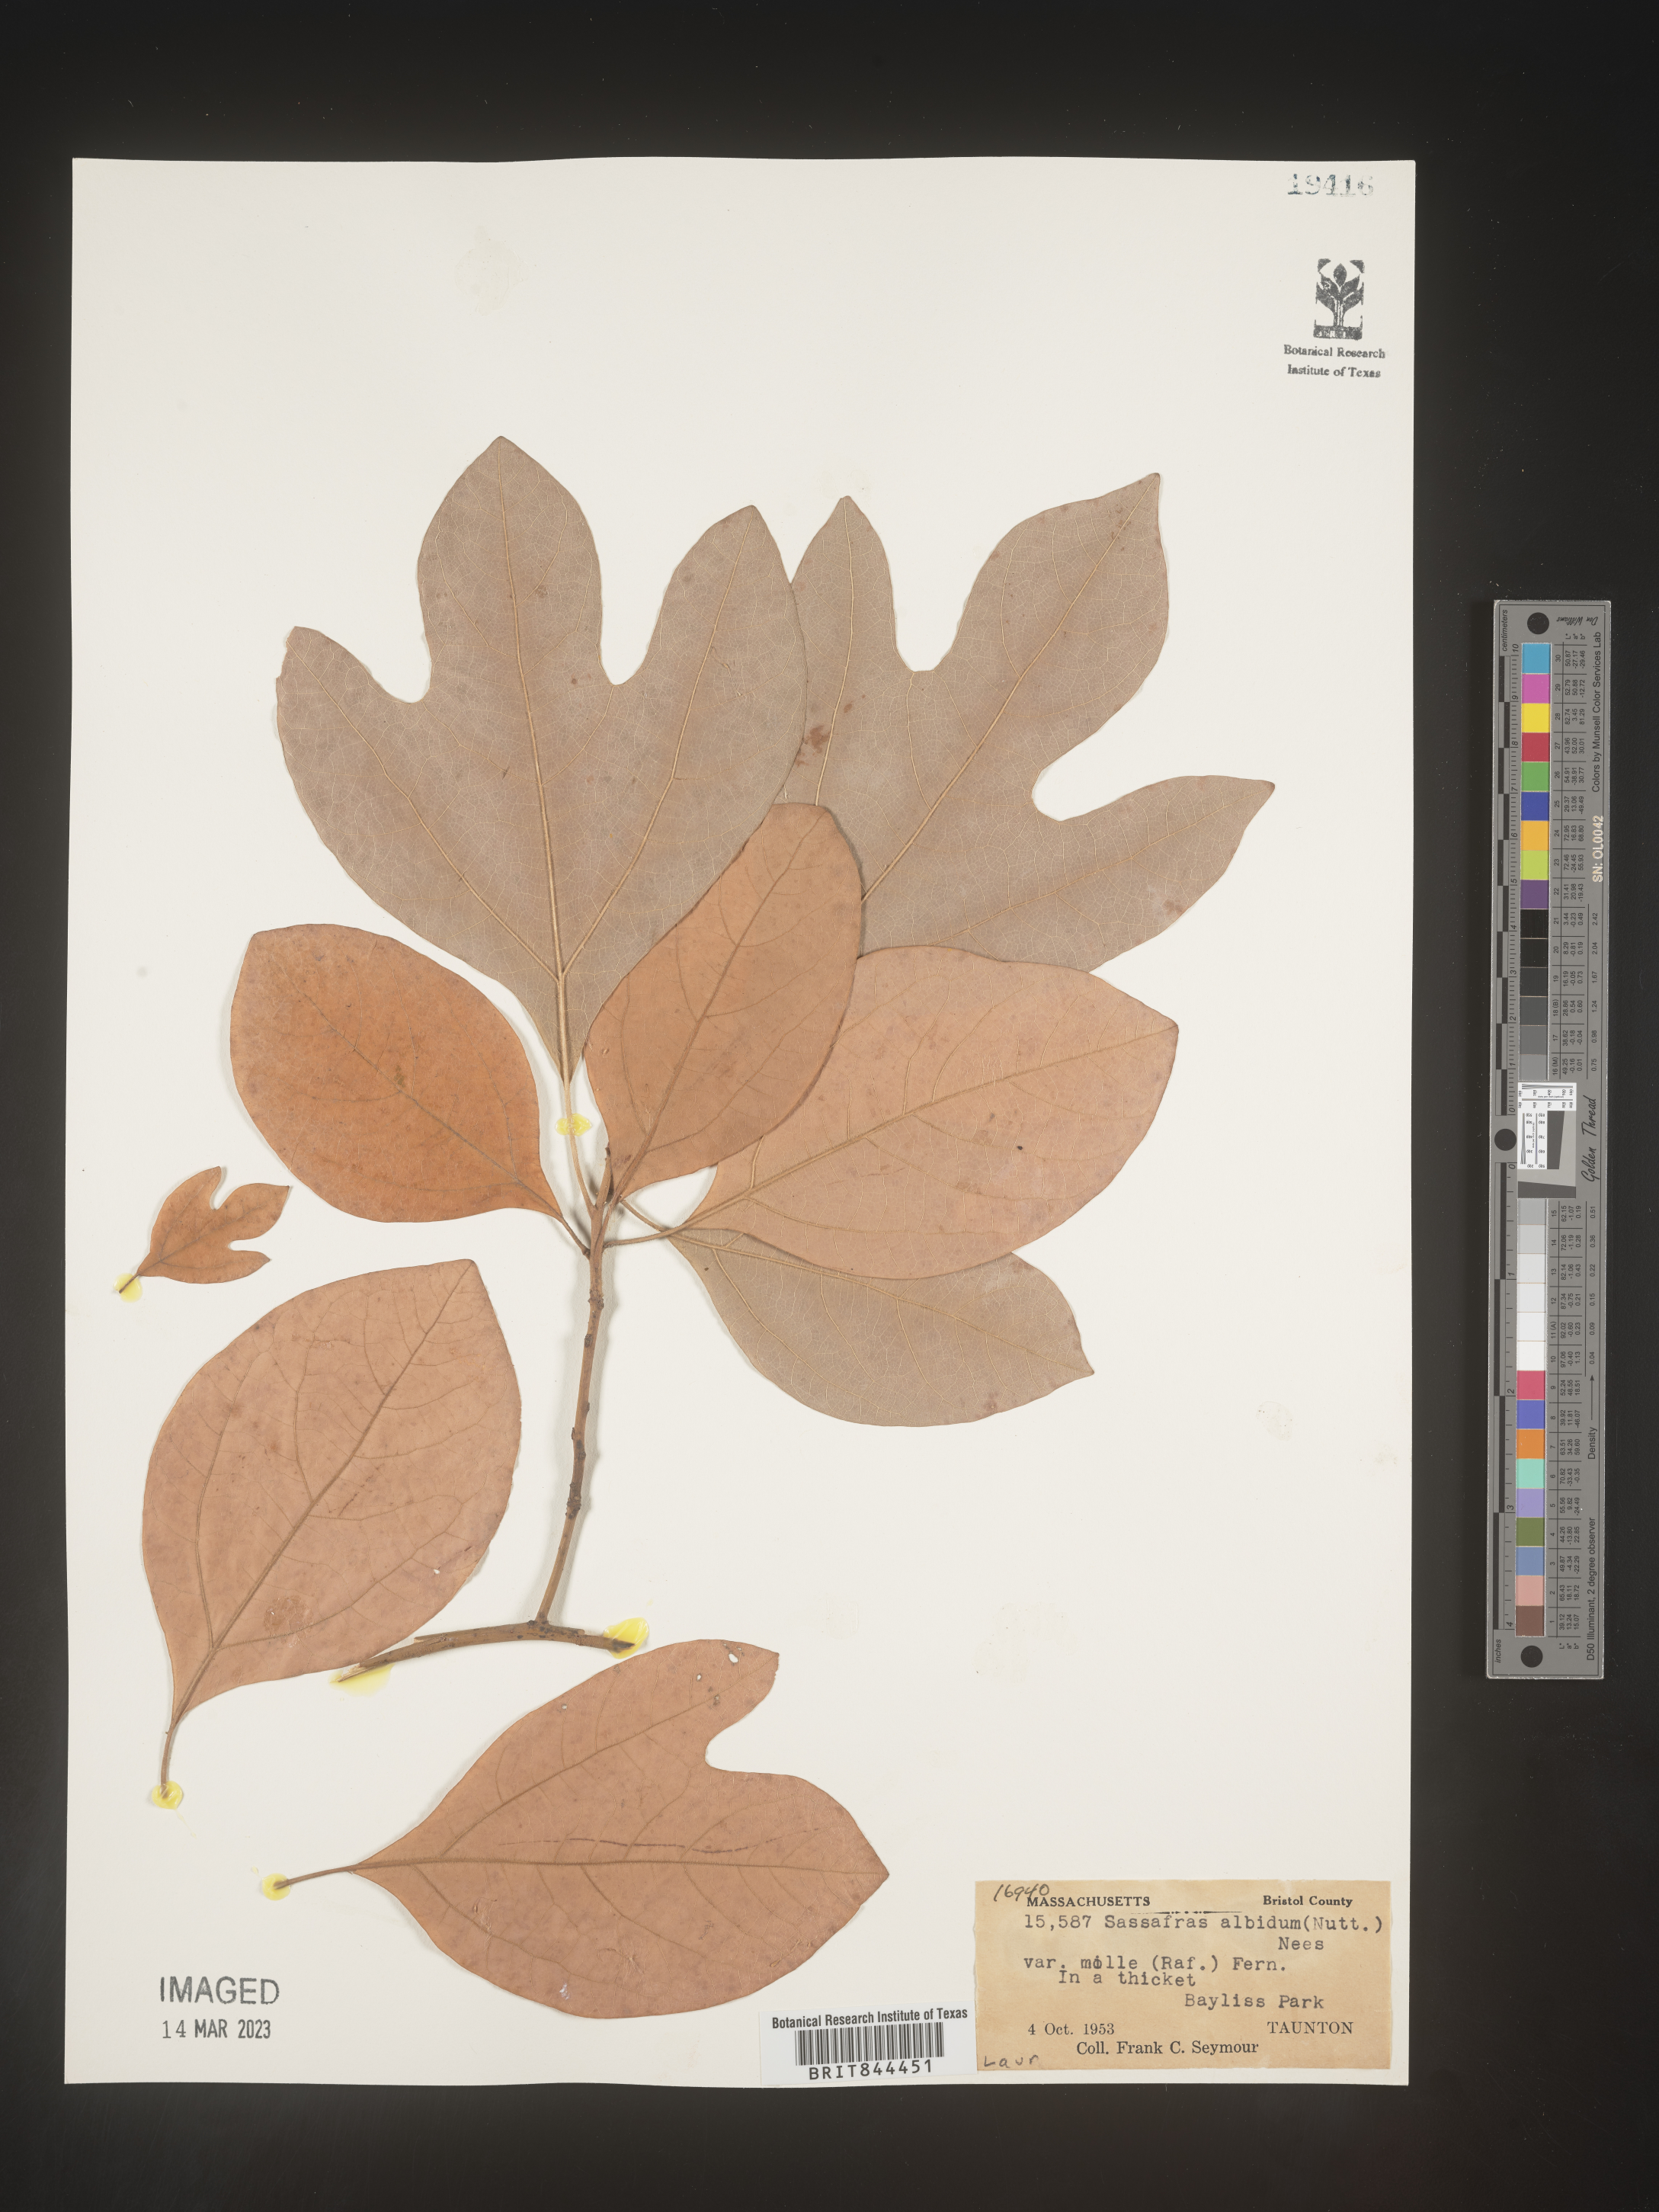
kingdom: Plantae
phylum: Tracheophyta
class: Magnoliopsida
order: Laurales
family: Lauraceae
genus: Sassafras
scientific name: Sassafras albidum
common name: Sassafras
